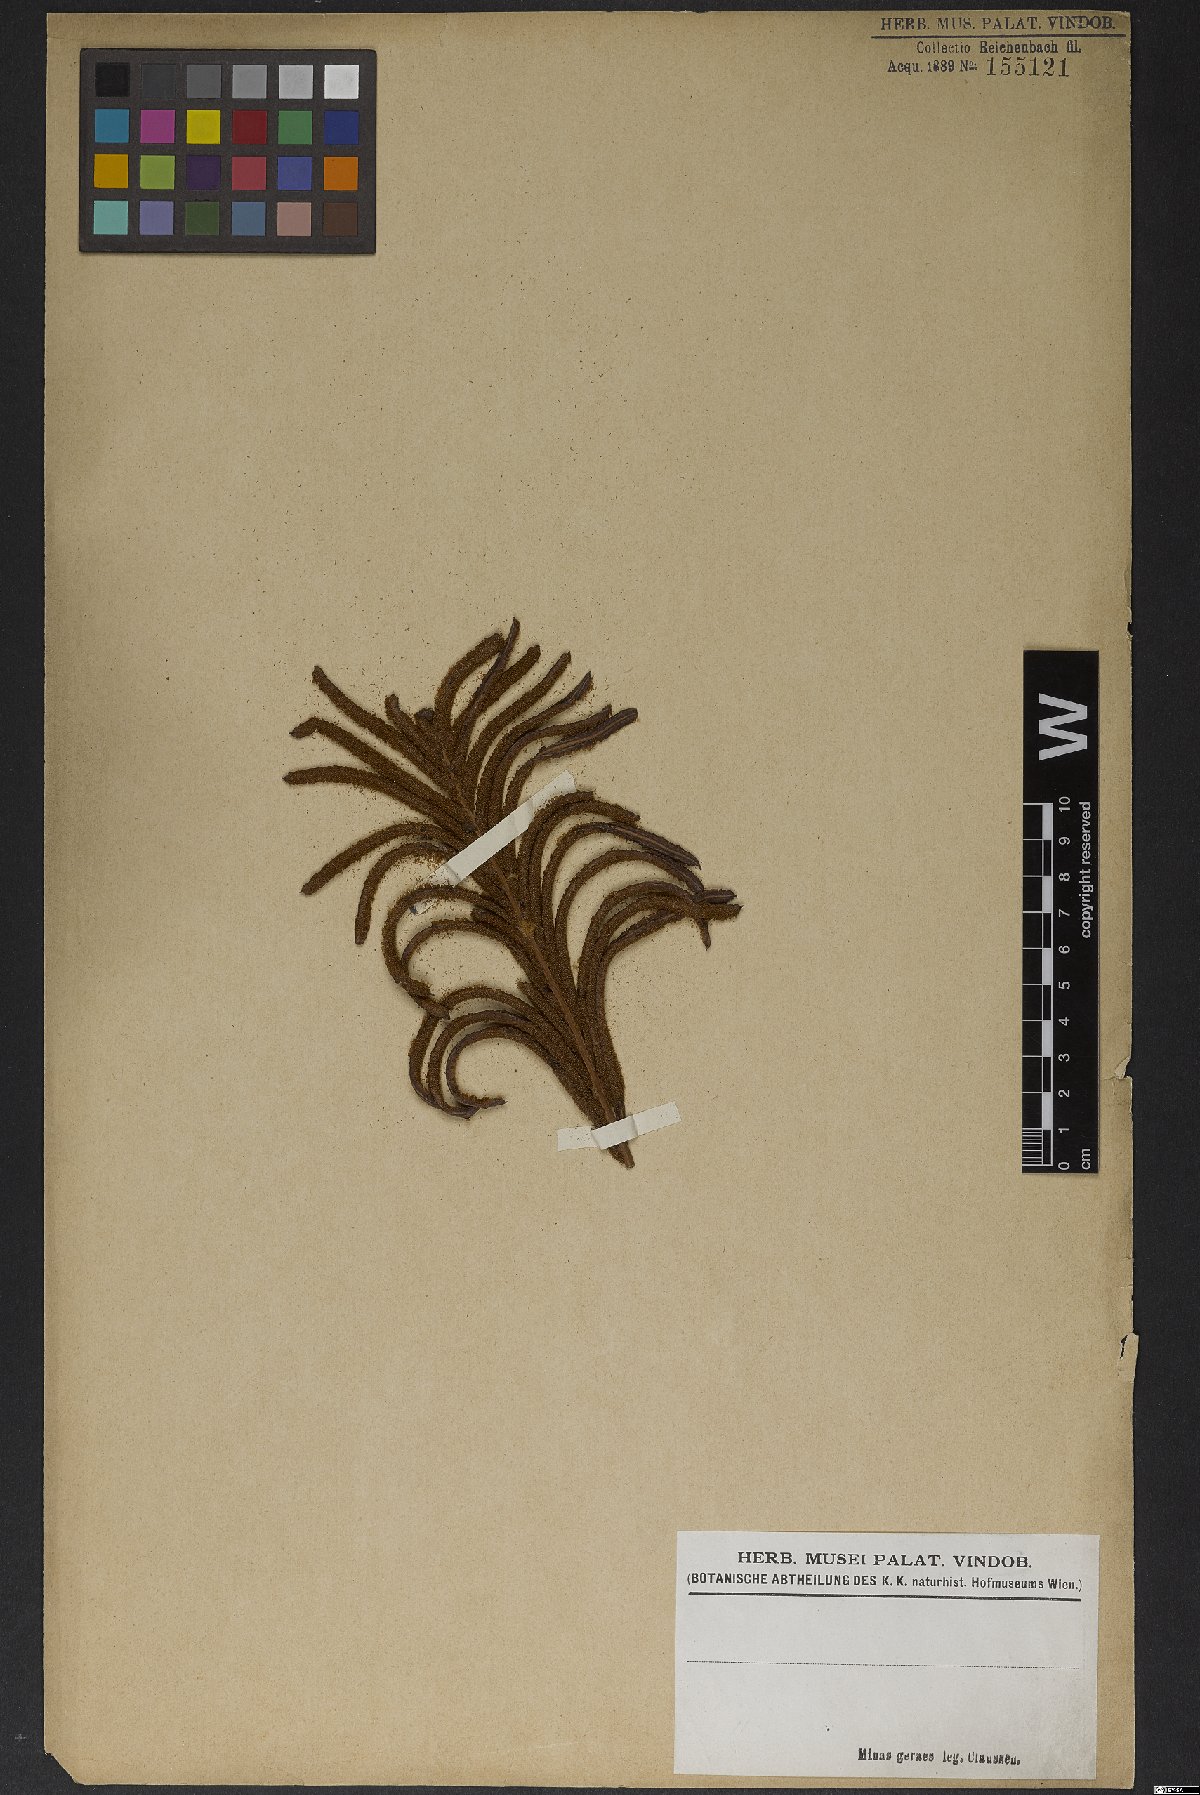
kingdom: Plantae
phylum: Tracheophyta
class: Polypodiopsida
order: Polypodiales
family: Blechnaceae
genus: Blechnum
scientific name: Blechnum
